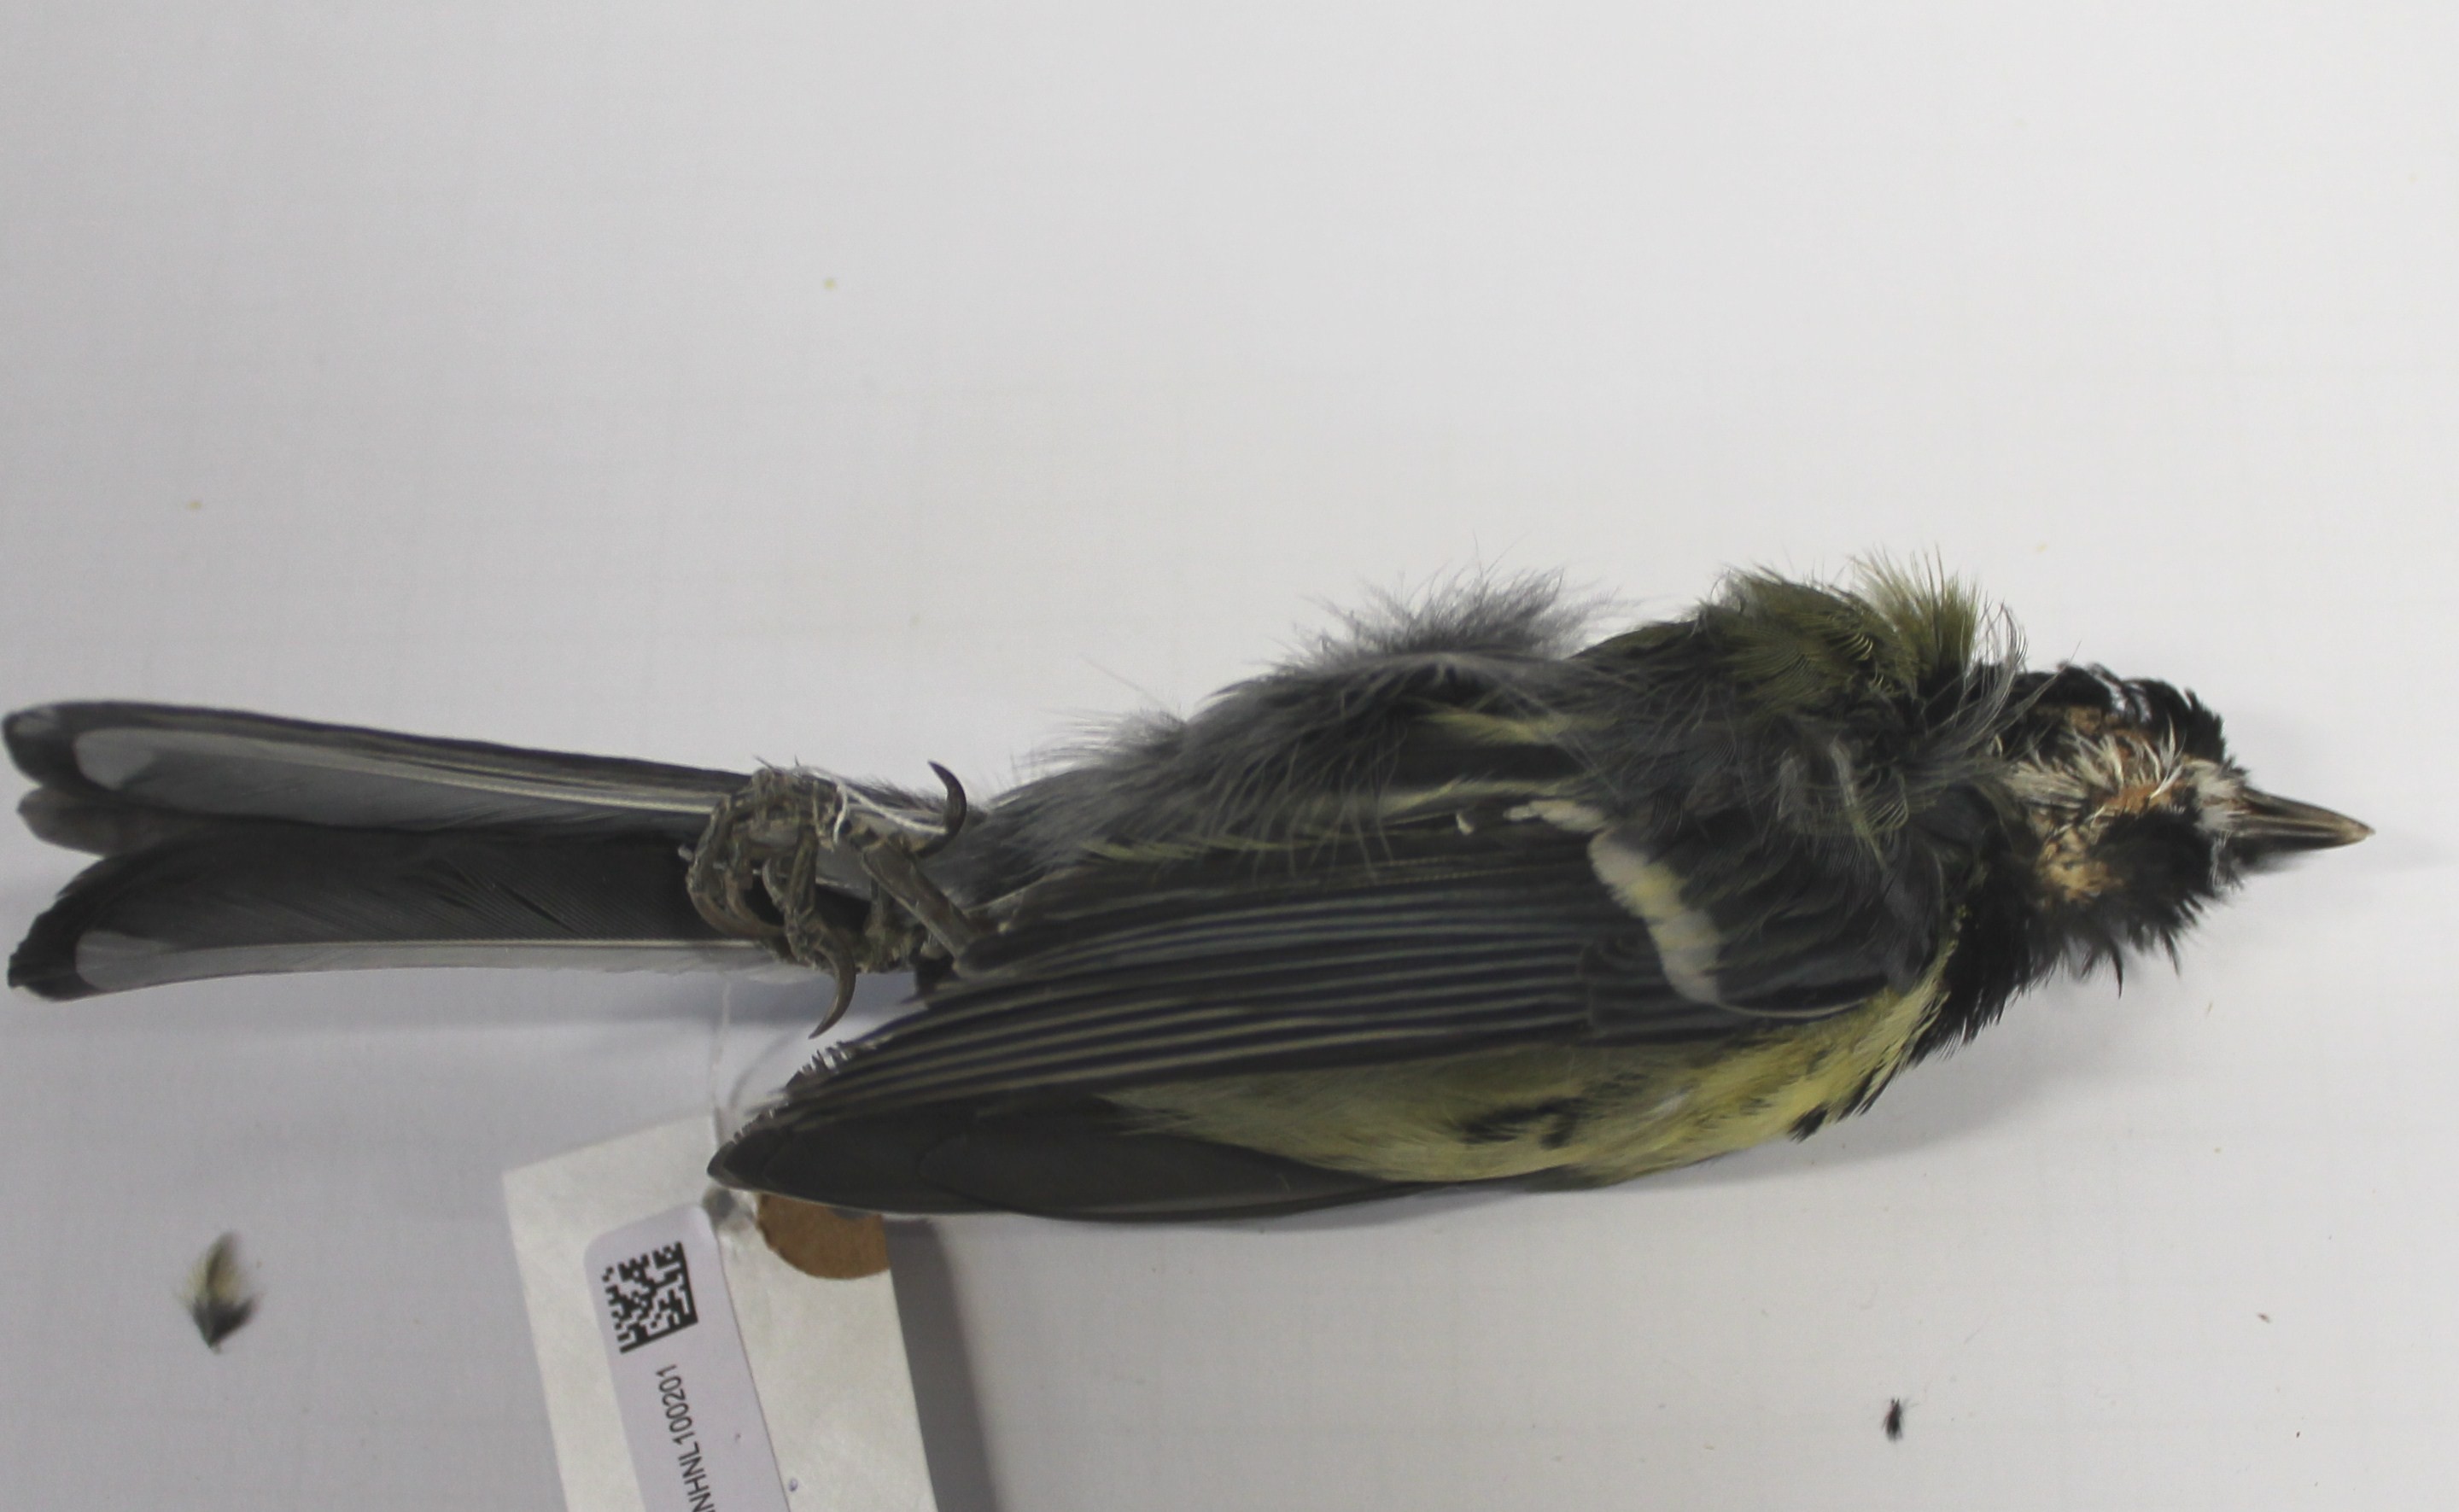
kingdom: Animalia
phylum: Chordata
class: Aves
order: Passeriformes
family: Paridae
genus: Parus
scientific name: Parus major
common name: Great tit
